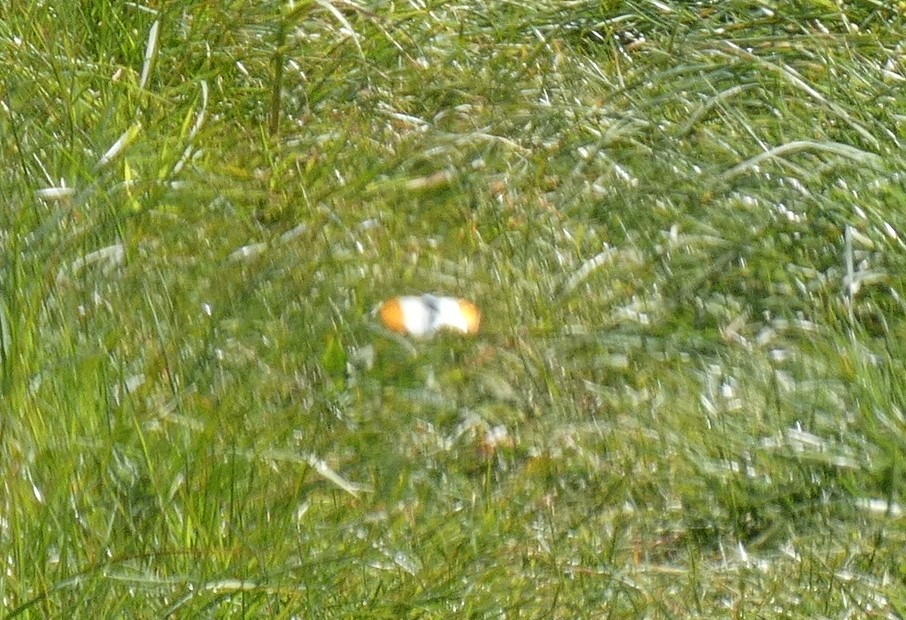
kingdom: Animalia
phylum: Arthropoda
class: Insecta
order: Lepidoptera
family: Pieridae
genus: Anthocharis
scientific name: Anthocharis cardamines
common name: Aurora
